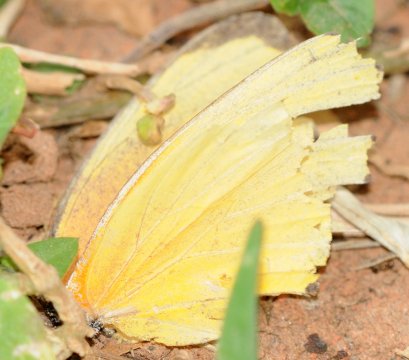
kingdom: Animalia
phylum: Arthropoda
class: Insecta
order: Lepidoptera
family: Pieridae
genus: Mylothris
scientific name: Mylothris agathina
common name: Eastern Dotted Border
